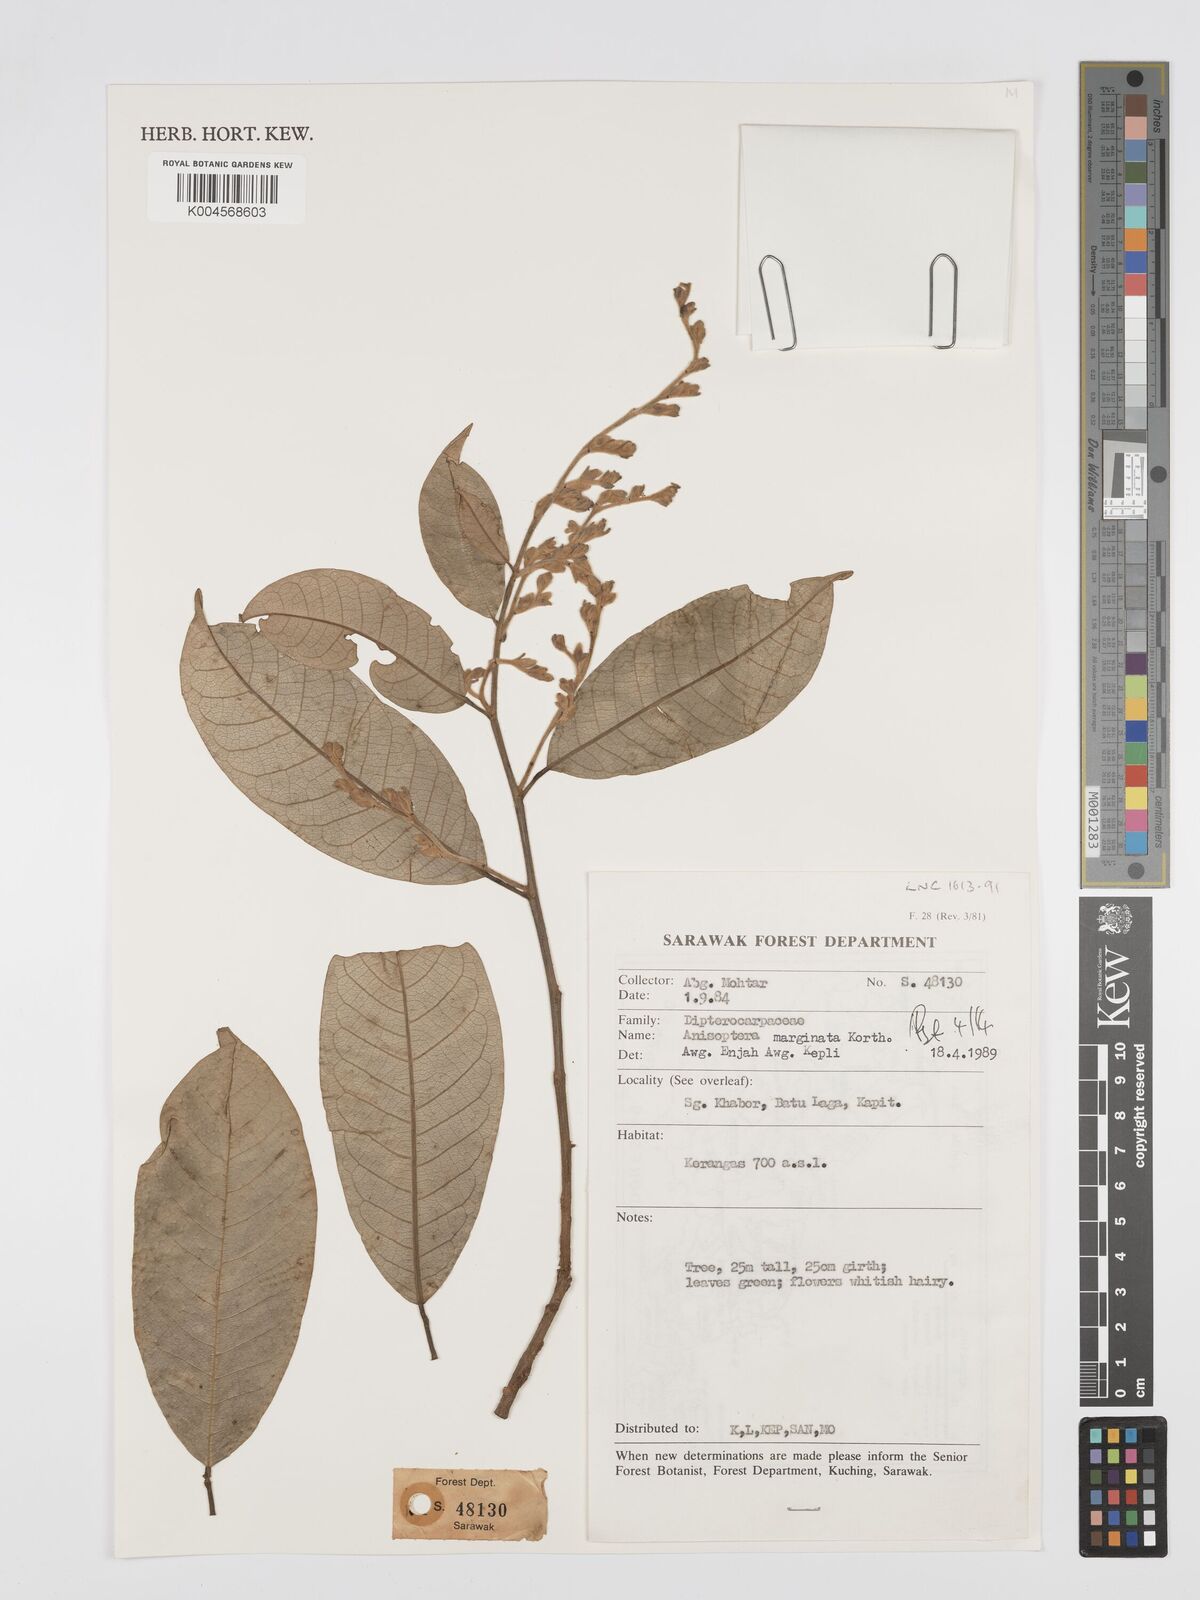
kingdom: Plantae
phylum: Tracheophyta
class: Magnoliopsida
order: Malvales
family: Dipterocarpaceae
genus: Anisoptera
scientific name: Anisoptera marginata
